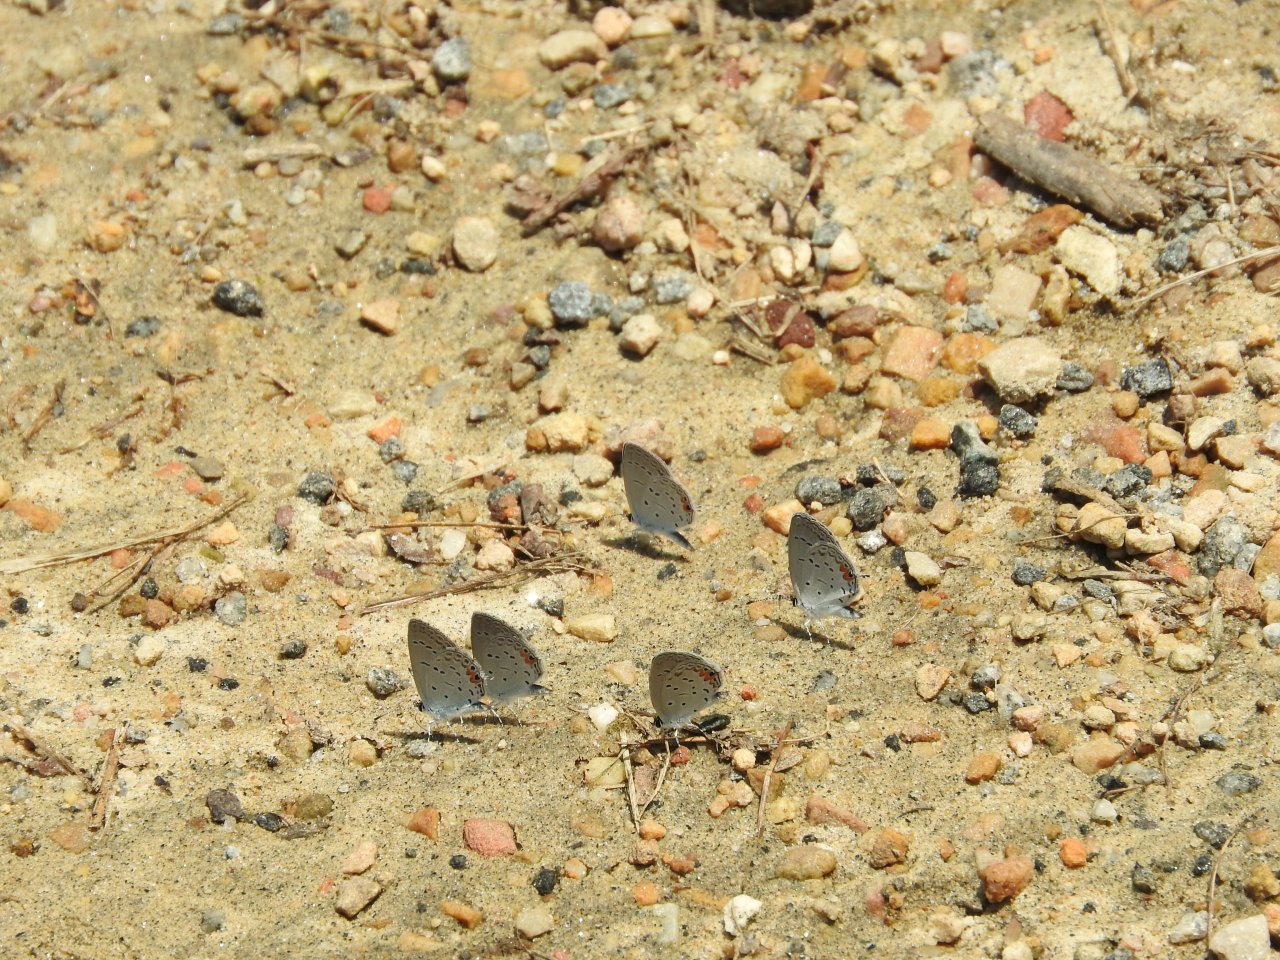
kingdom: Animalia
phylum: Arthropoda
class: Insecta
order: Lepidoptera
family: Lycaenidae
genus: Elkalyce
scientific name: Elkalyce comyntas
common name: Eastern Tailed-Blue
